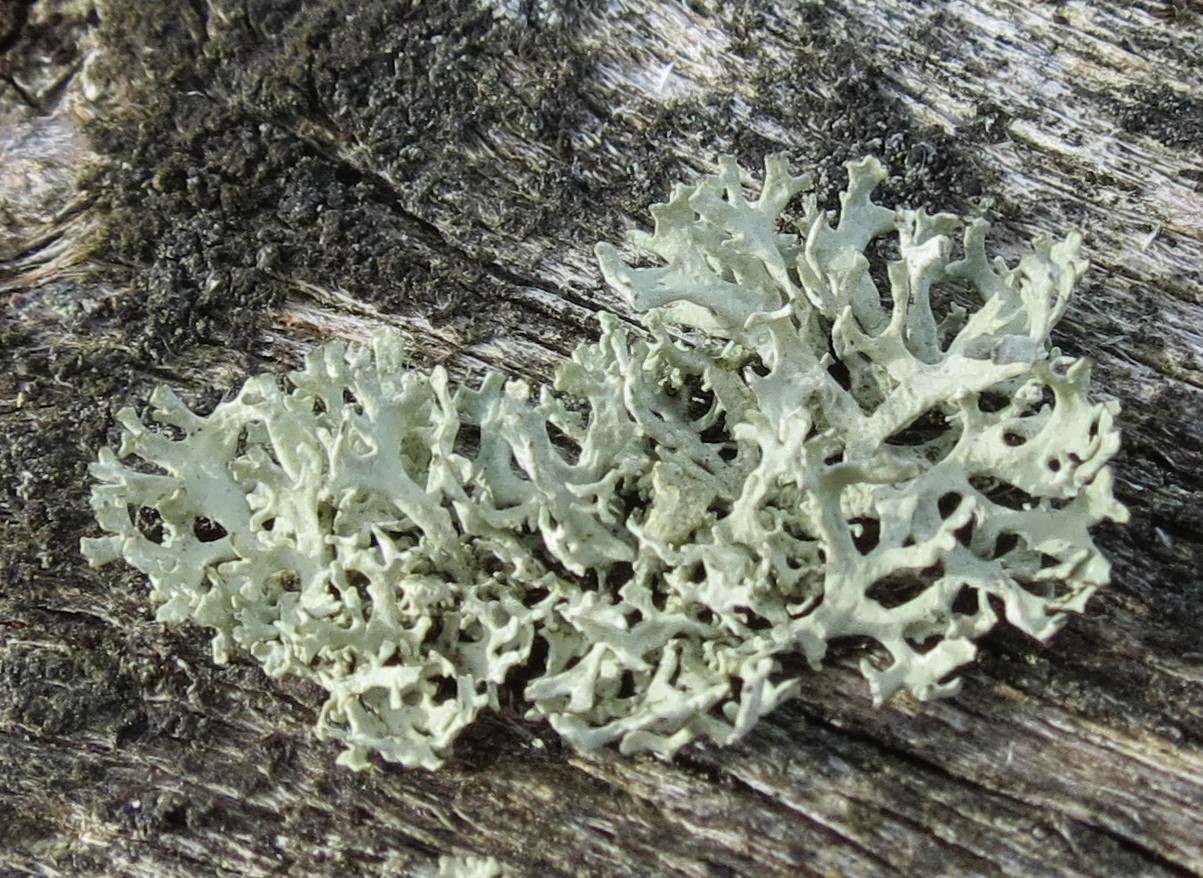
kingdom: Fungi
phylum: Ascomycota
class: Lecanoromycetes
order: Lecanorales
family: Parmeliaceae
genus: Evernia
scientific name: Evernia prunastri
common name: almindelig slåenlav
